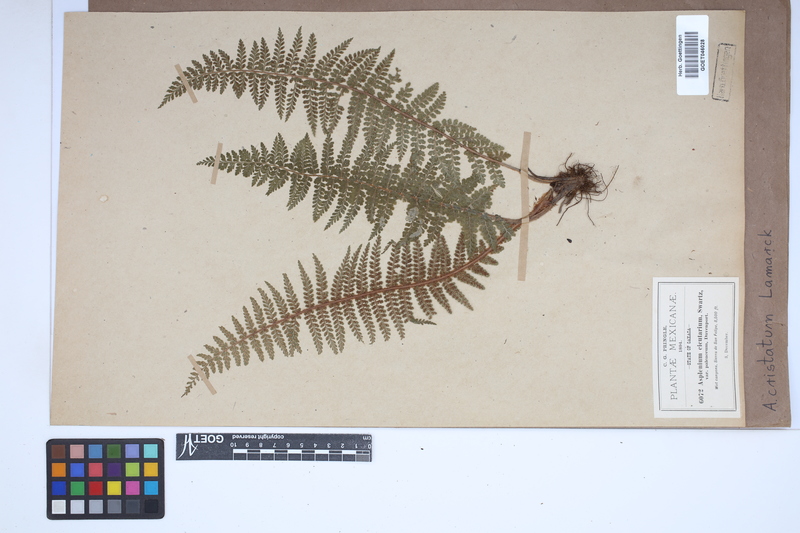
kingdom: Plantae
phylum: Tracheophyta
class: Polypodiopsida
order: Polypodiales
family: Aspleniaceae
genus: Asplenium
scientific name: Asplenium cristatum
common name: Parsley spleenwort
